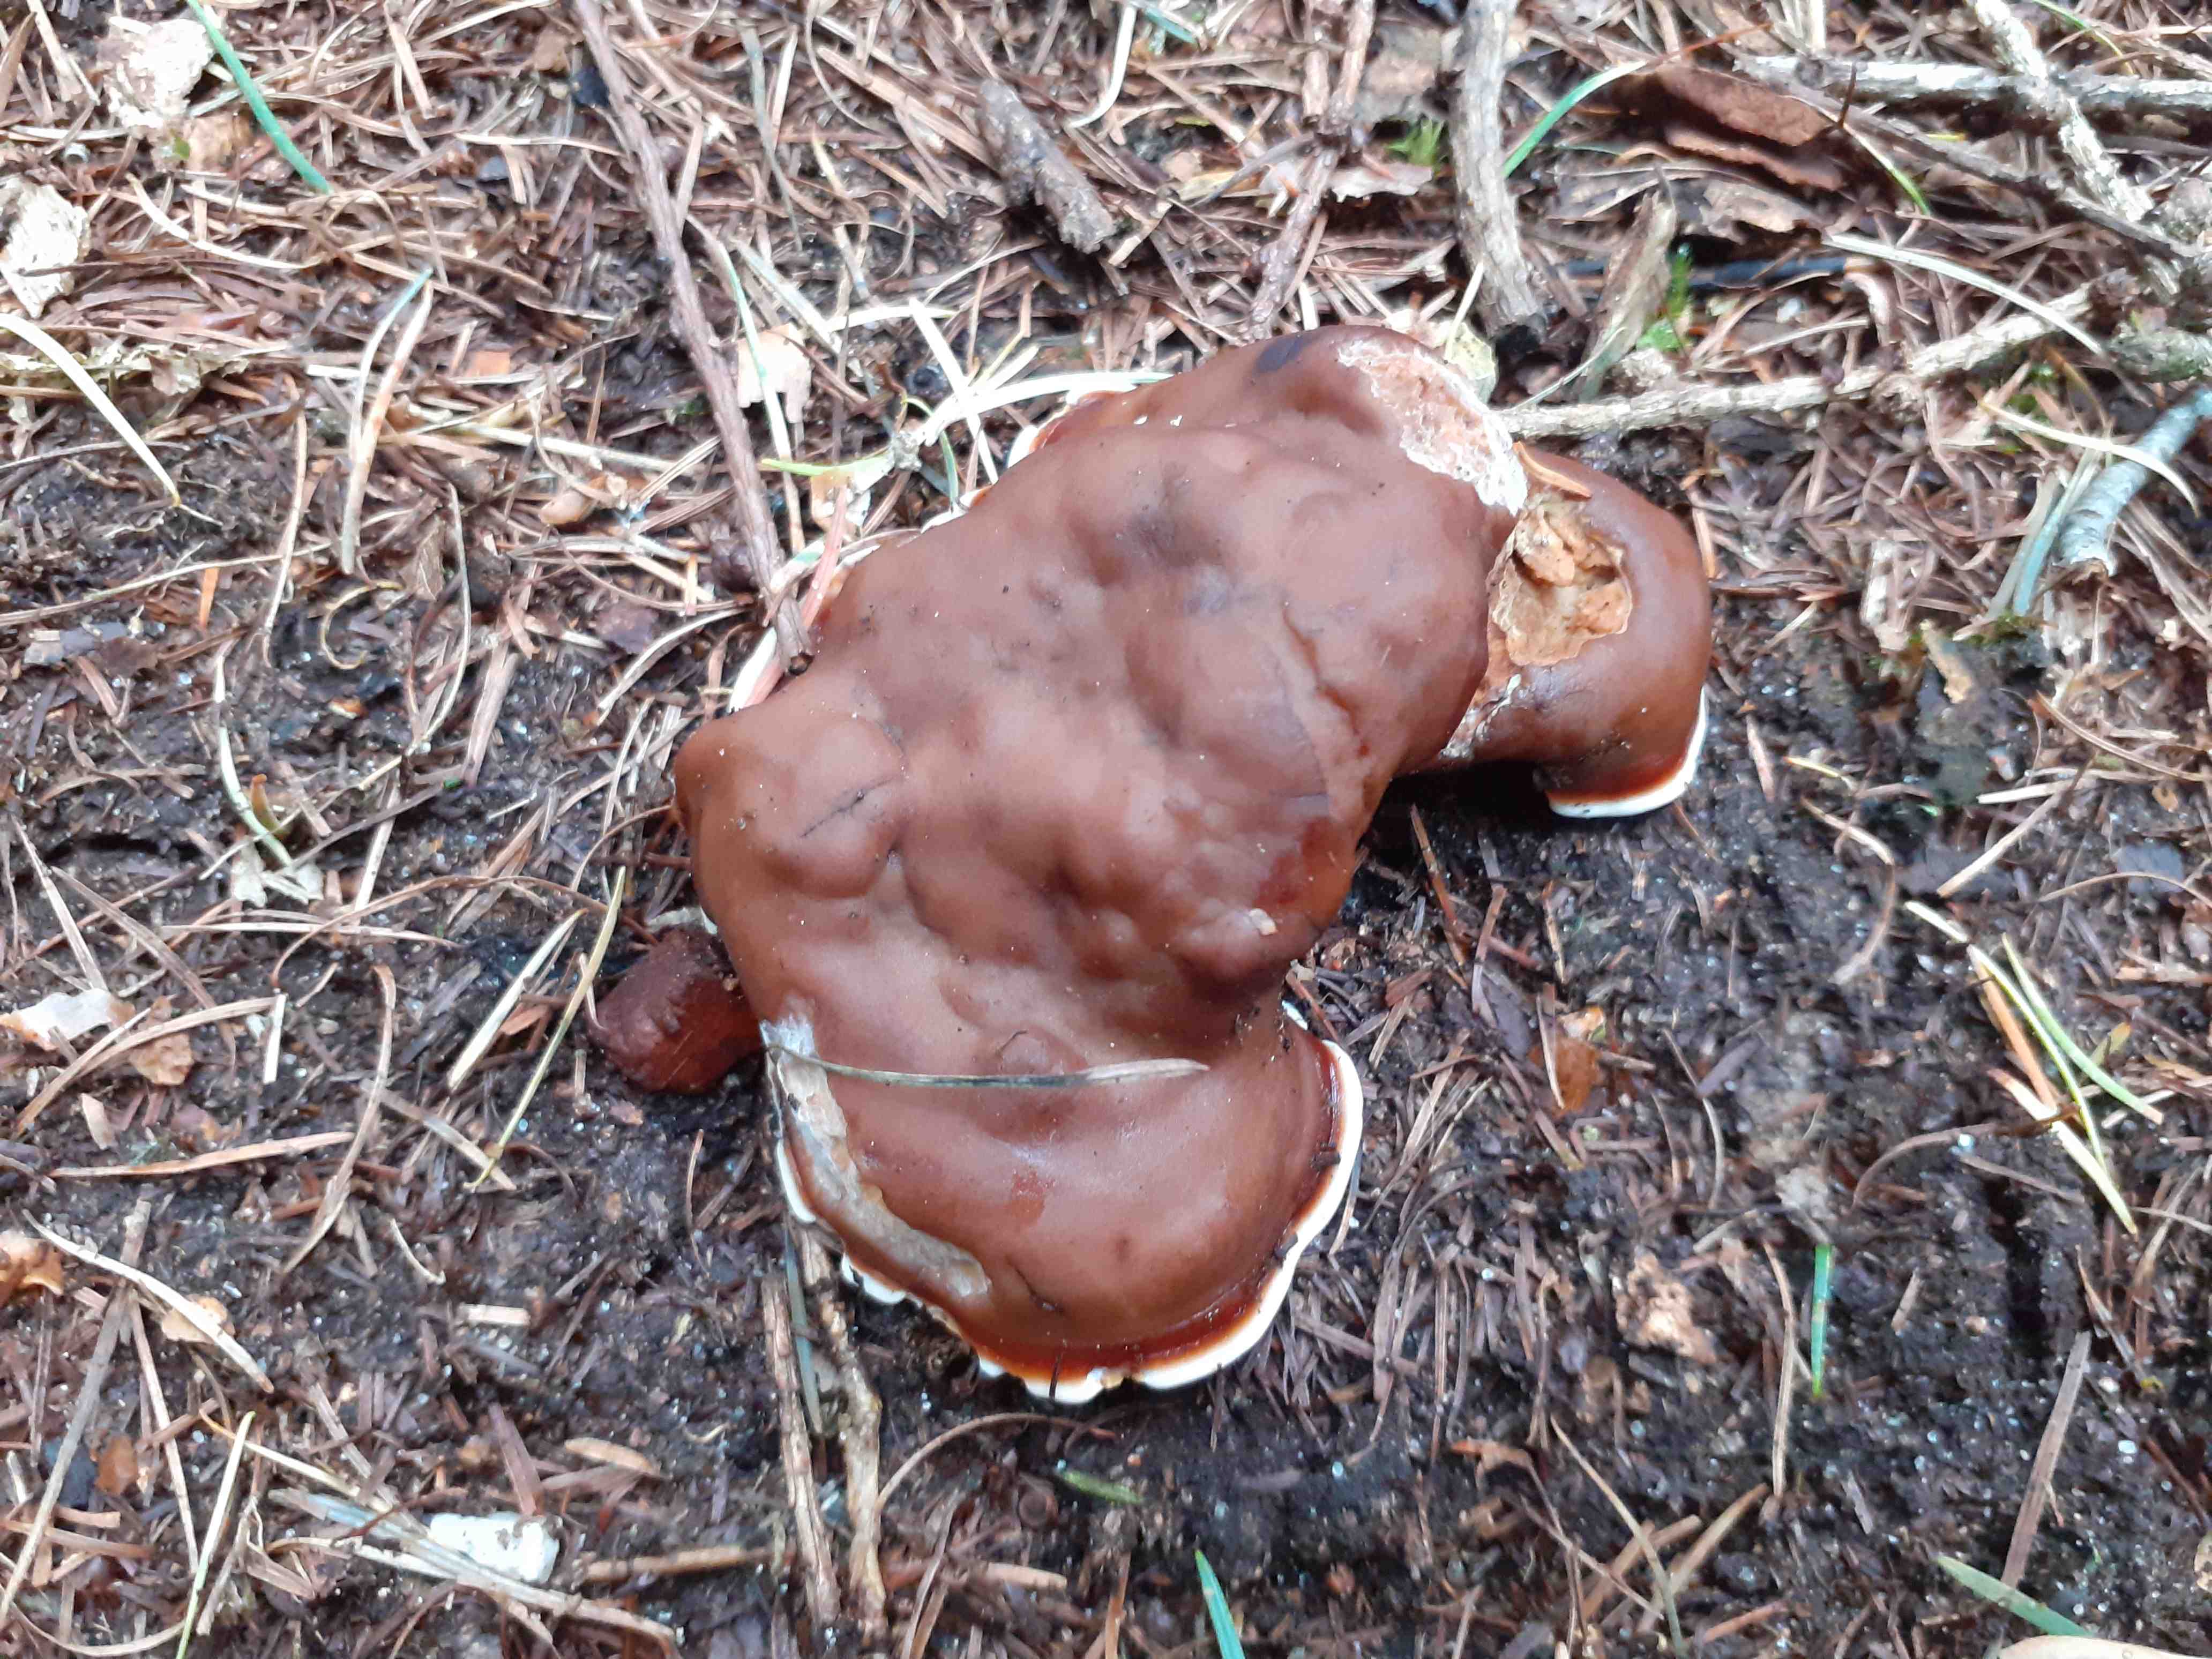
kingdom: Fungi
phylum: Ascomycota
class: Pezizomycetes
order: Pezizales
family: Rhizinaceae
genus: Rhizina
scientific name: Rhizina undulata
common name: rodmorkel
